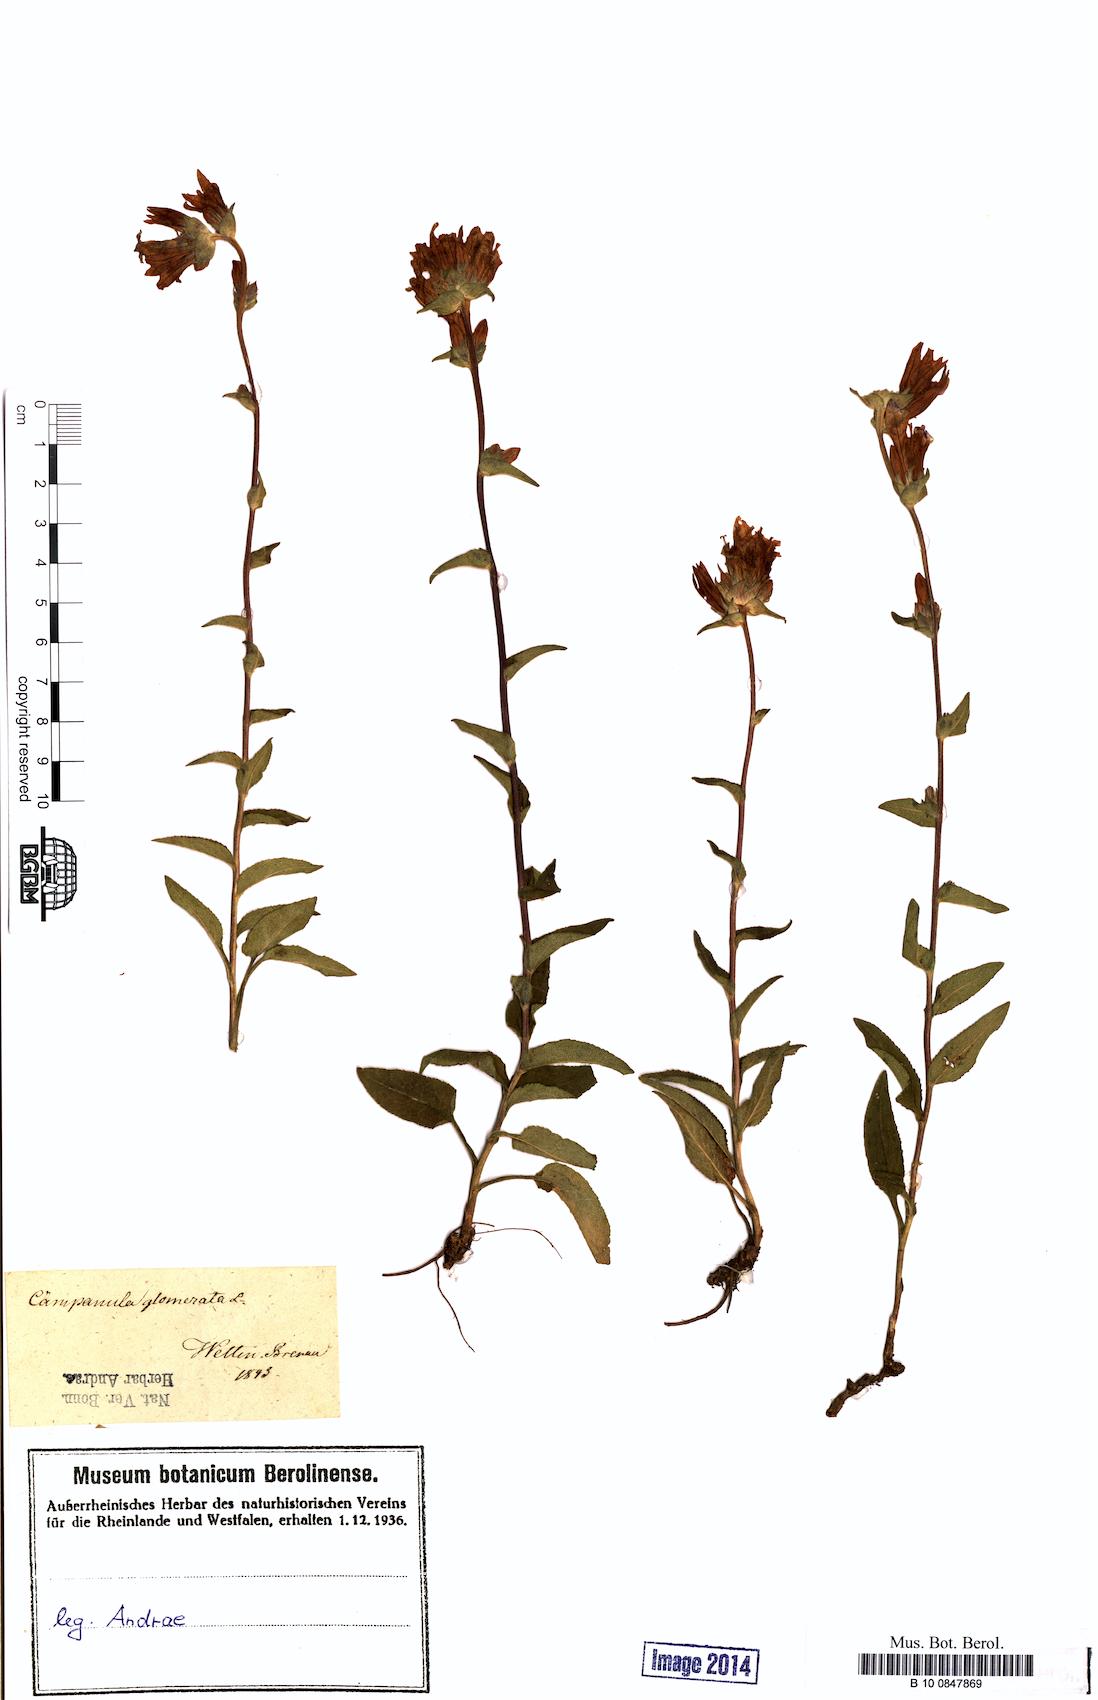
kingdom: Plantae
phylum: Tracheophyta
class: Magnoliopsida
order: Asterales
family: Campanulaceae
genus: Campanula
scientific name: Campanula glomerata
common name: Clustered bellflower
